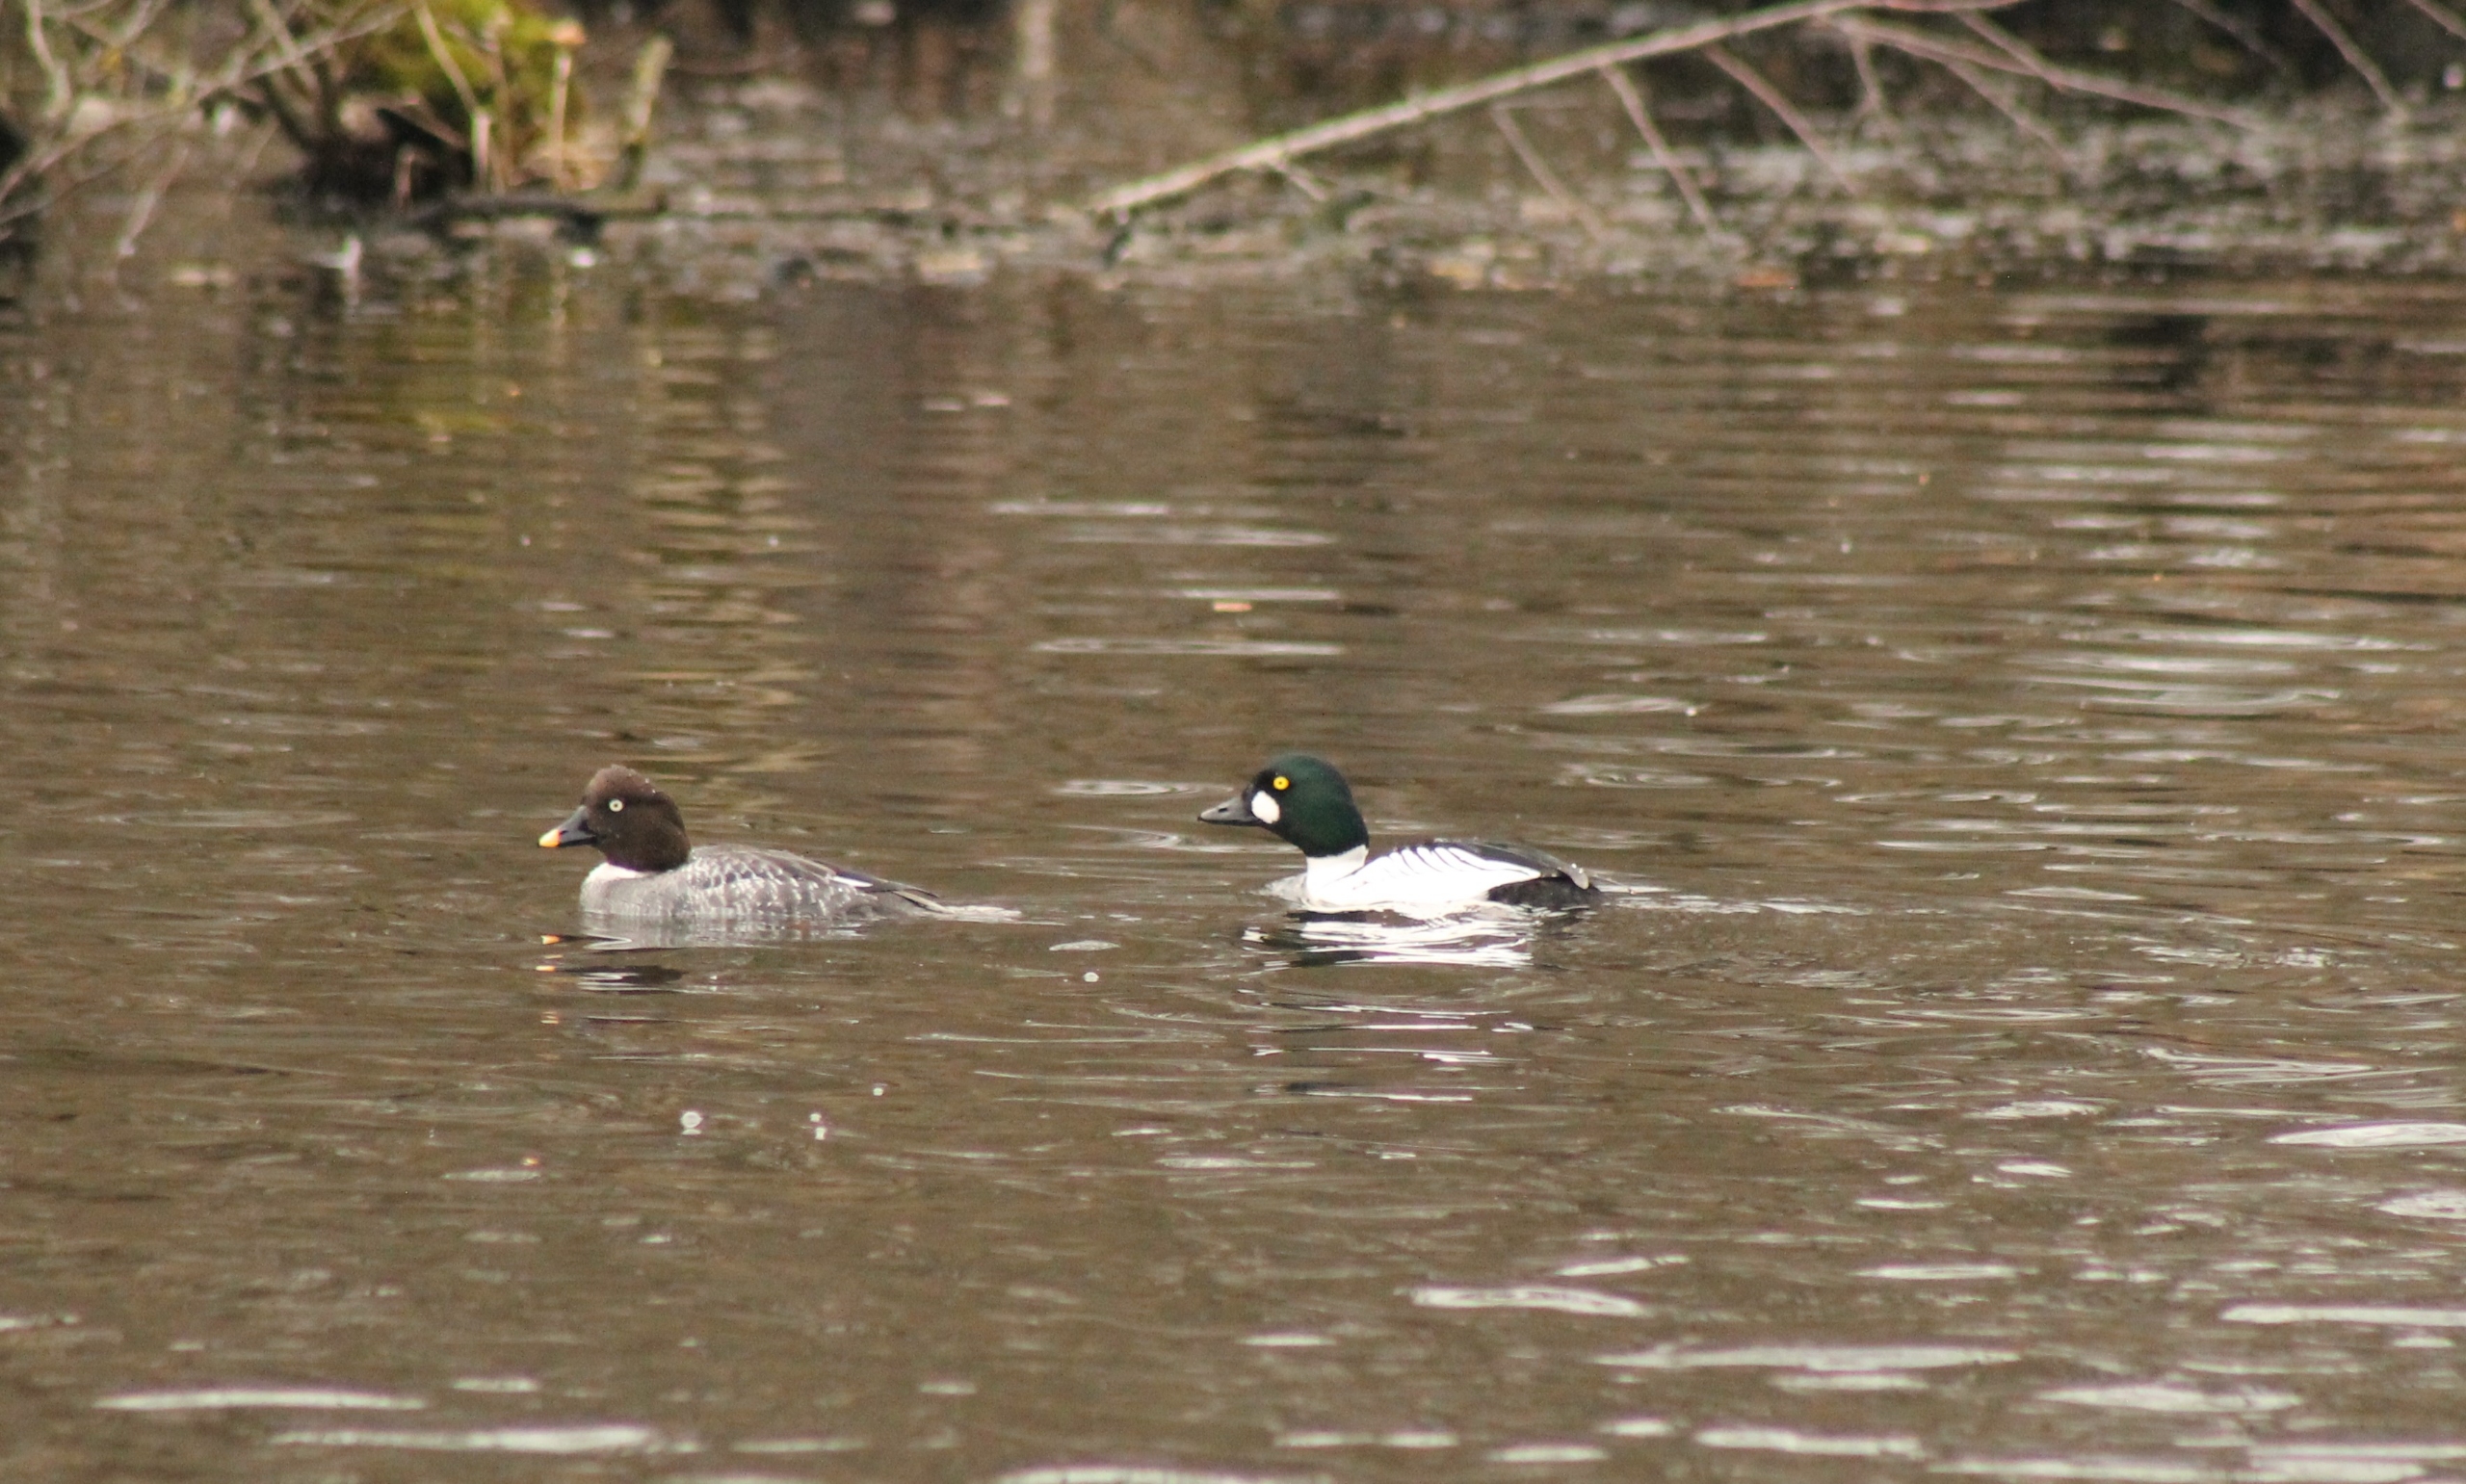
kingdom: Animalia
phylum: Chordata
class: Aves
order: Anseriformes
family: Anatidae
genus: Bucephala
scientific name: Bucephala clangula
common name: Hvinand
